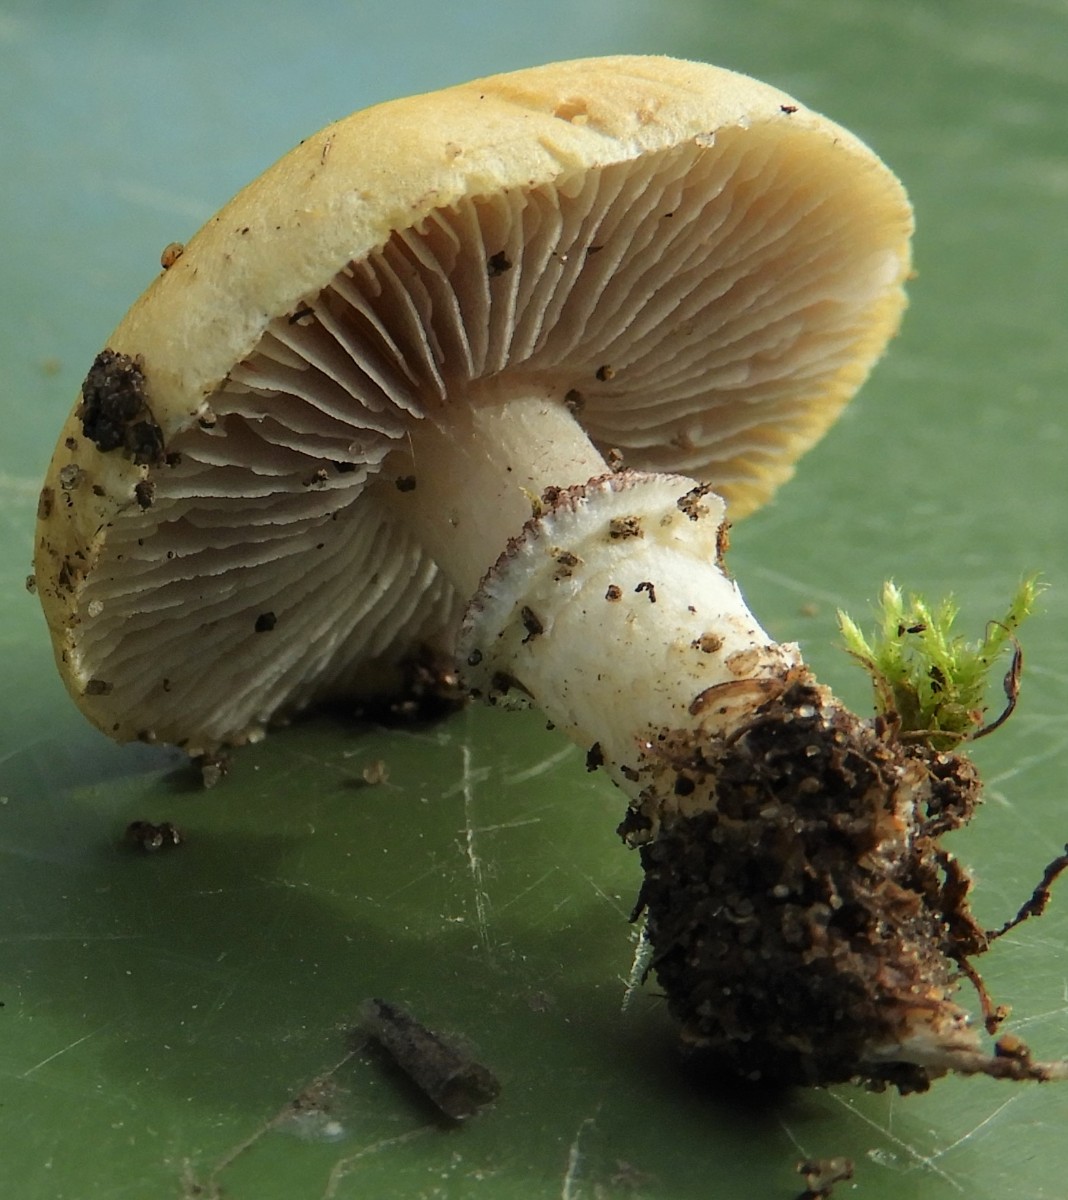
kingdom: Fungi
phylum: Basidiomycota
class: Agaricomycetes
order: Agaricales
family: Hymenogastraceae
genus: Psilocybe
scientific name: Psilocybe coronilla
